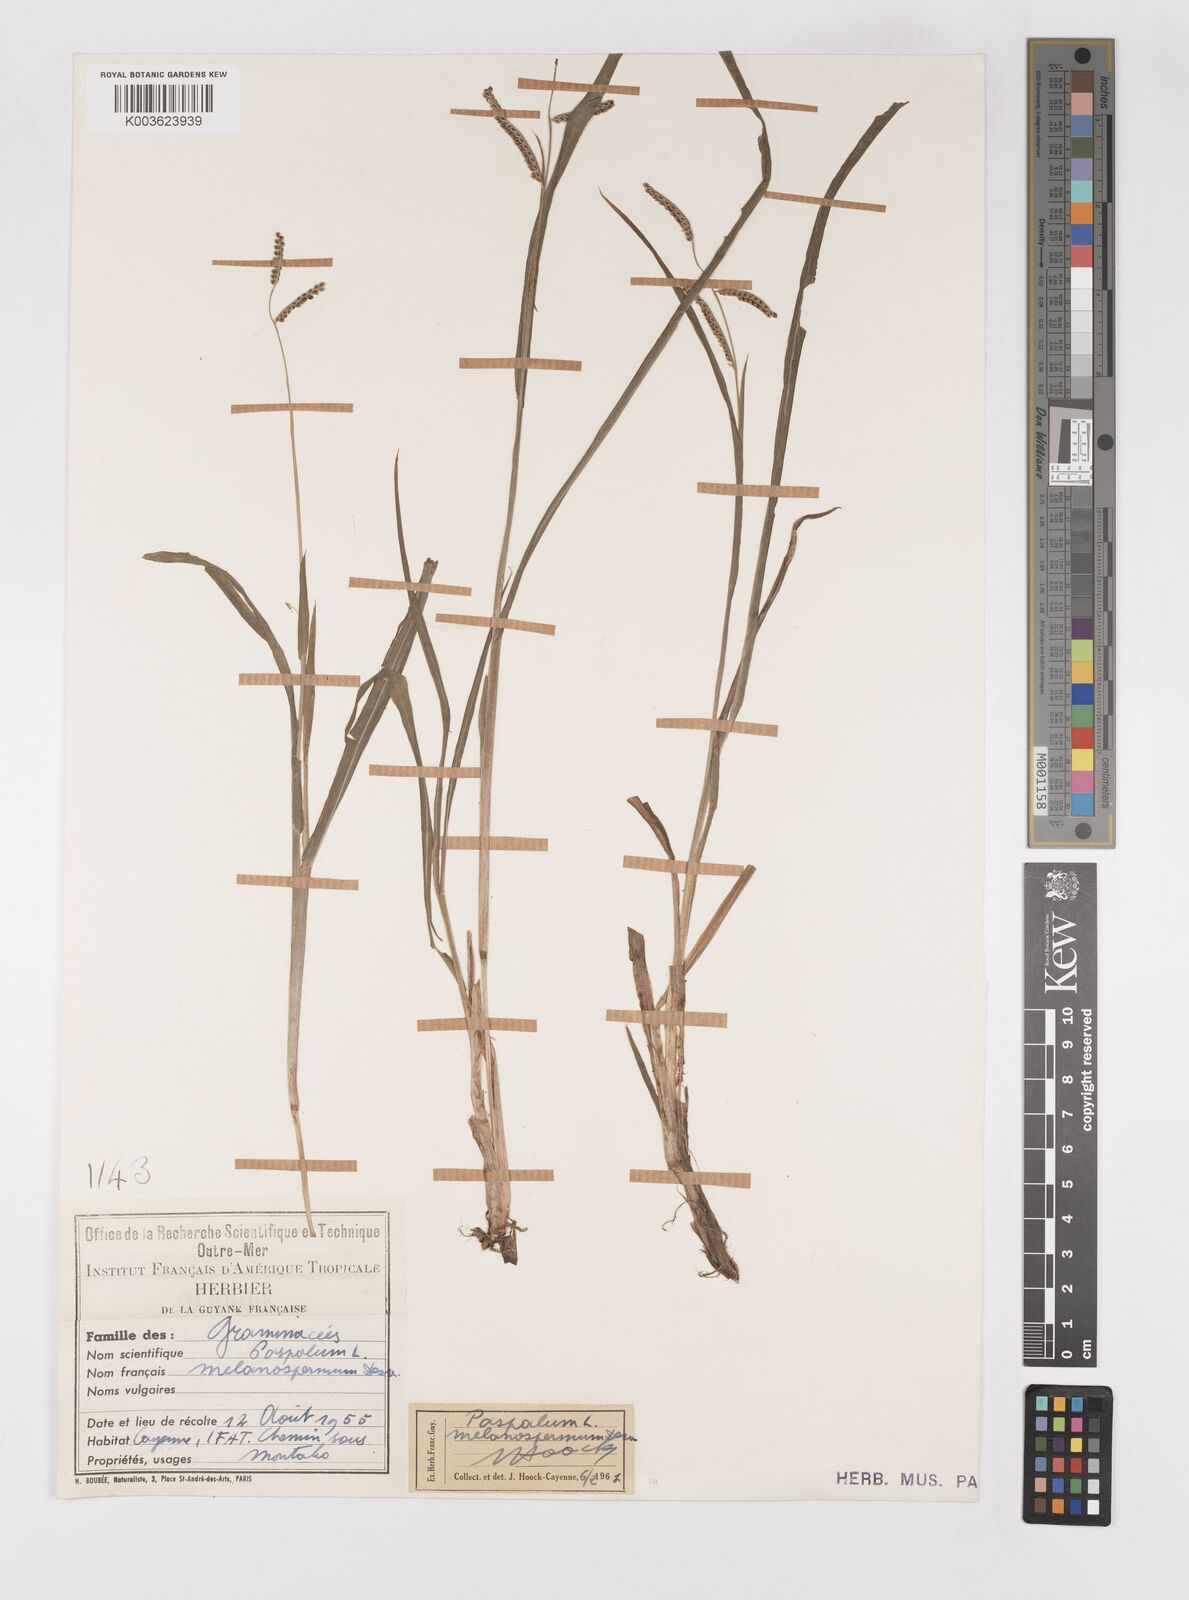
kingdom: Plantae
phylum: Tracheophyta
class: Liliopsida
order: Poales
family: Poaceae
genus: Paspalum
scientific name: Paspalum melanospermum
